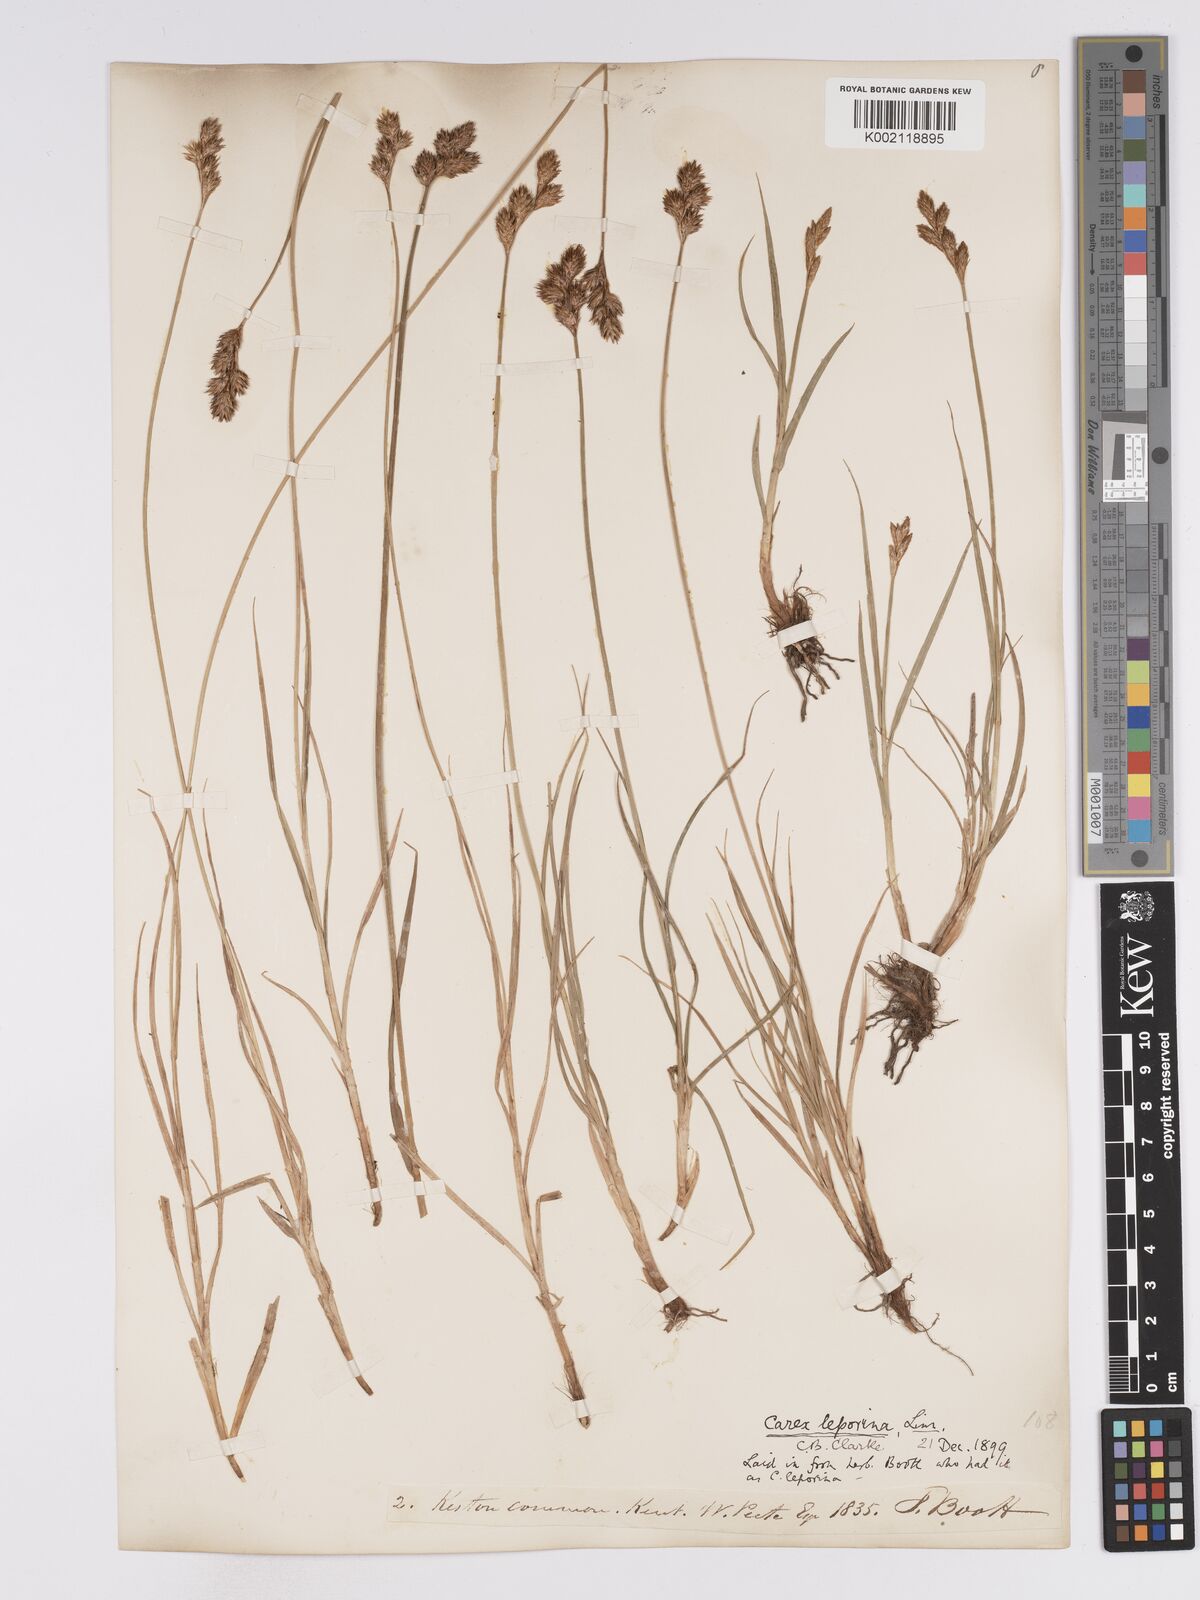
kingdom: Plantae
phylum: Tracheophyta
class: Liliopsida
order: Poales
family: Cyperaceae
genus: Carex
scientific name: Carex leporina
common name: Oval sedge
